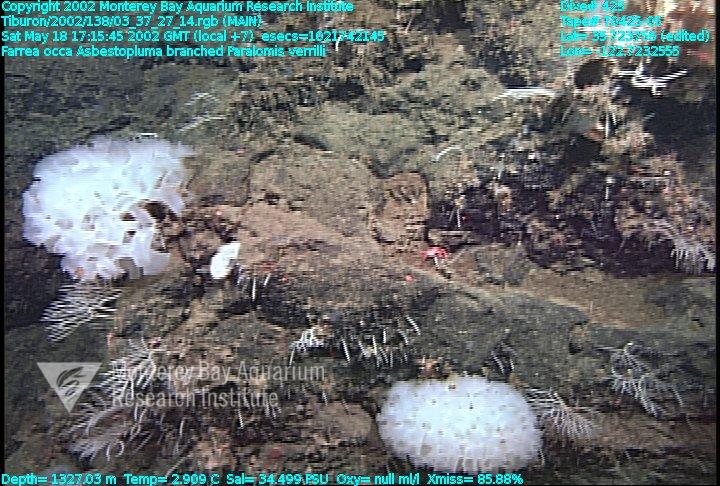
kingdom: Animalia
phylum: Porifera
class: Demospongiae
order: Poecilosclerida
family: Cladorhizidae
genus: Asbestopluma
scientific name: Asbestopluma monticola
